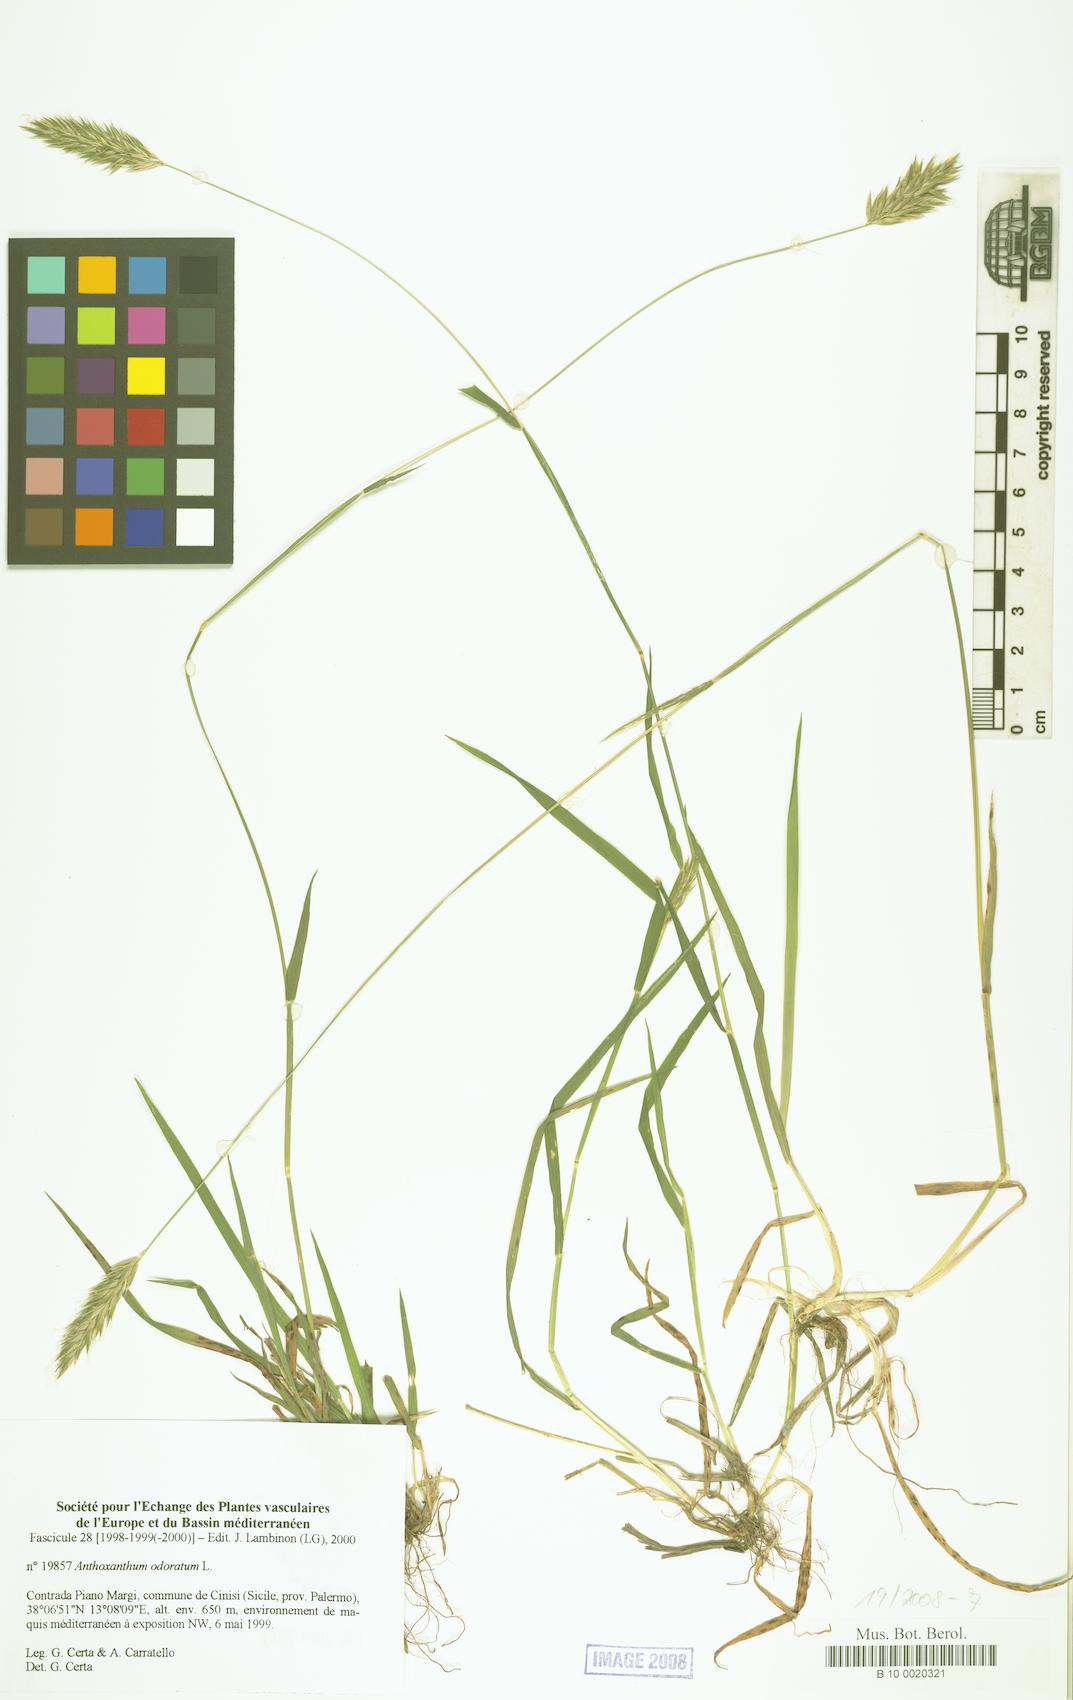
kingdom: Plantae
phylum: Tracheophyta
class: Liliopsida
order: Poales
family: Poaceae
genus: Anthoxanthum
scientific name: Anthoxanthum odoratum
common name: Sweet vernalgrass
